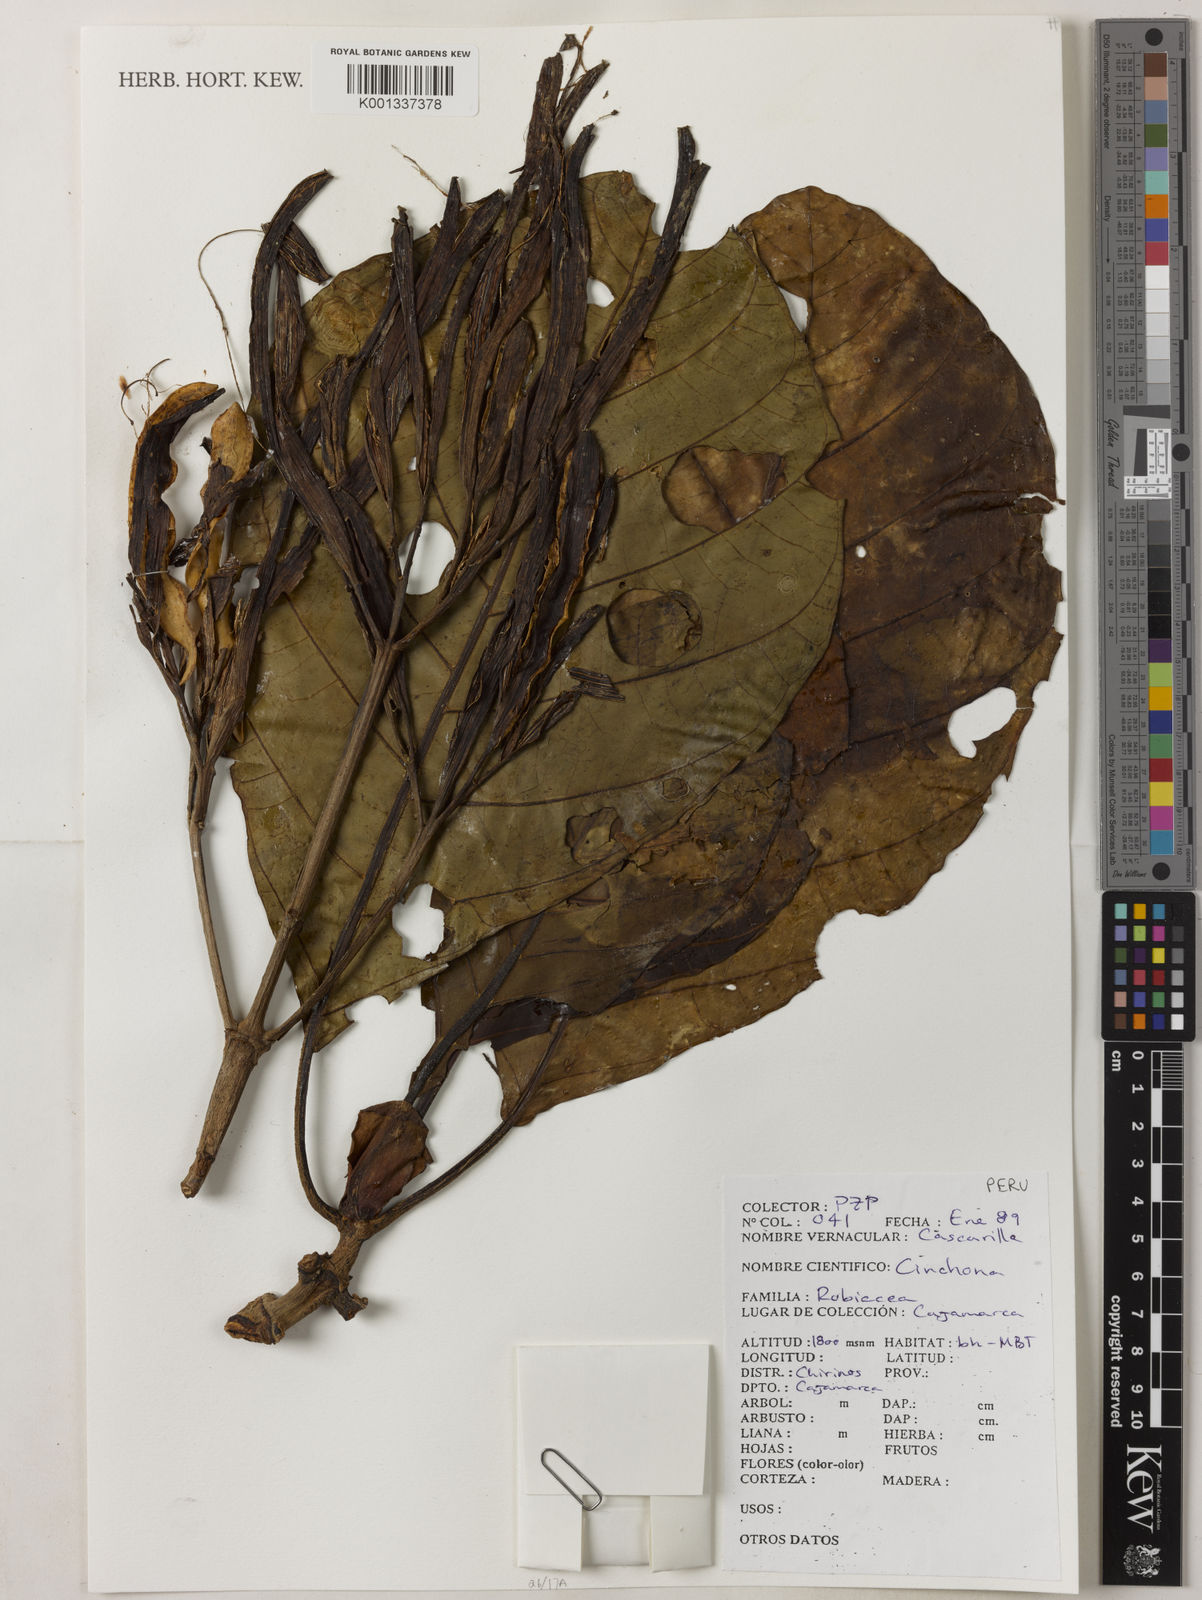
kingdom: Plantae
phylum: Tracheophyta
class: Magnoliopsida
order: Gentianales
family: Rubiaceae
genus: Cinchona
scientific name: Cinchona
